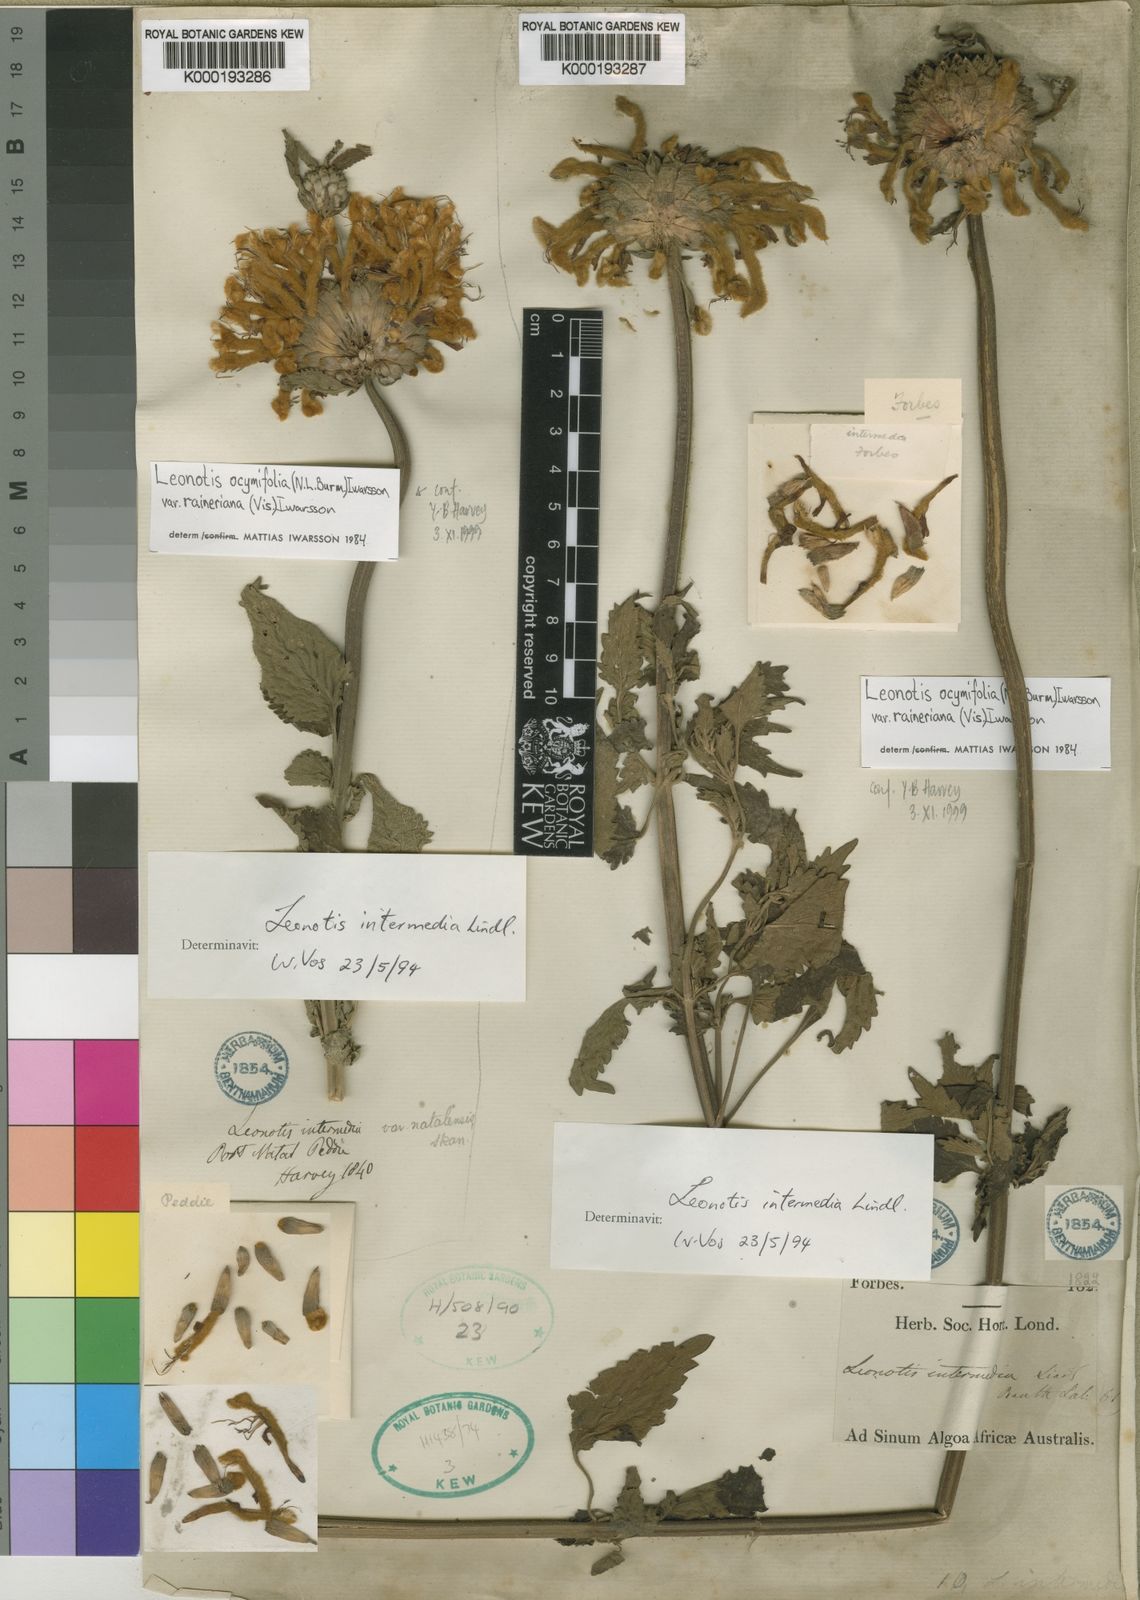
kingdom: Plantae
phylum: Tracheophyta
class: Magnoliopsida
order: Lamiales
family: Lamiaceae
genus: Leonotis
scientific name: Leonotis ocymifolia
